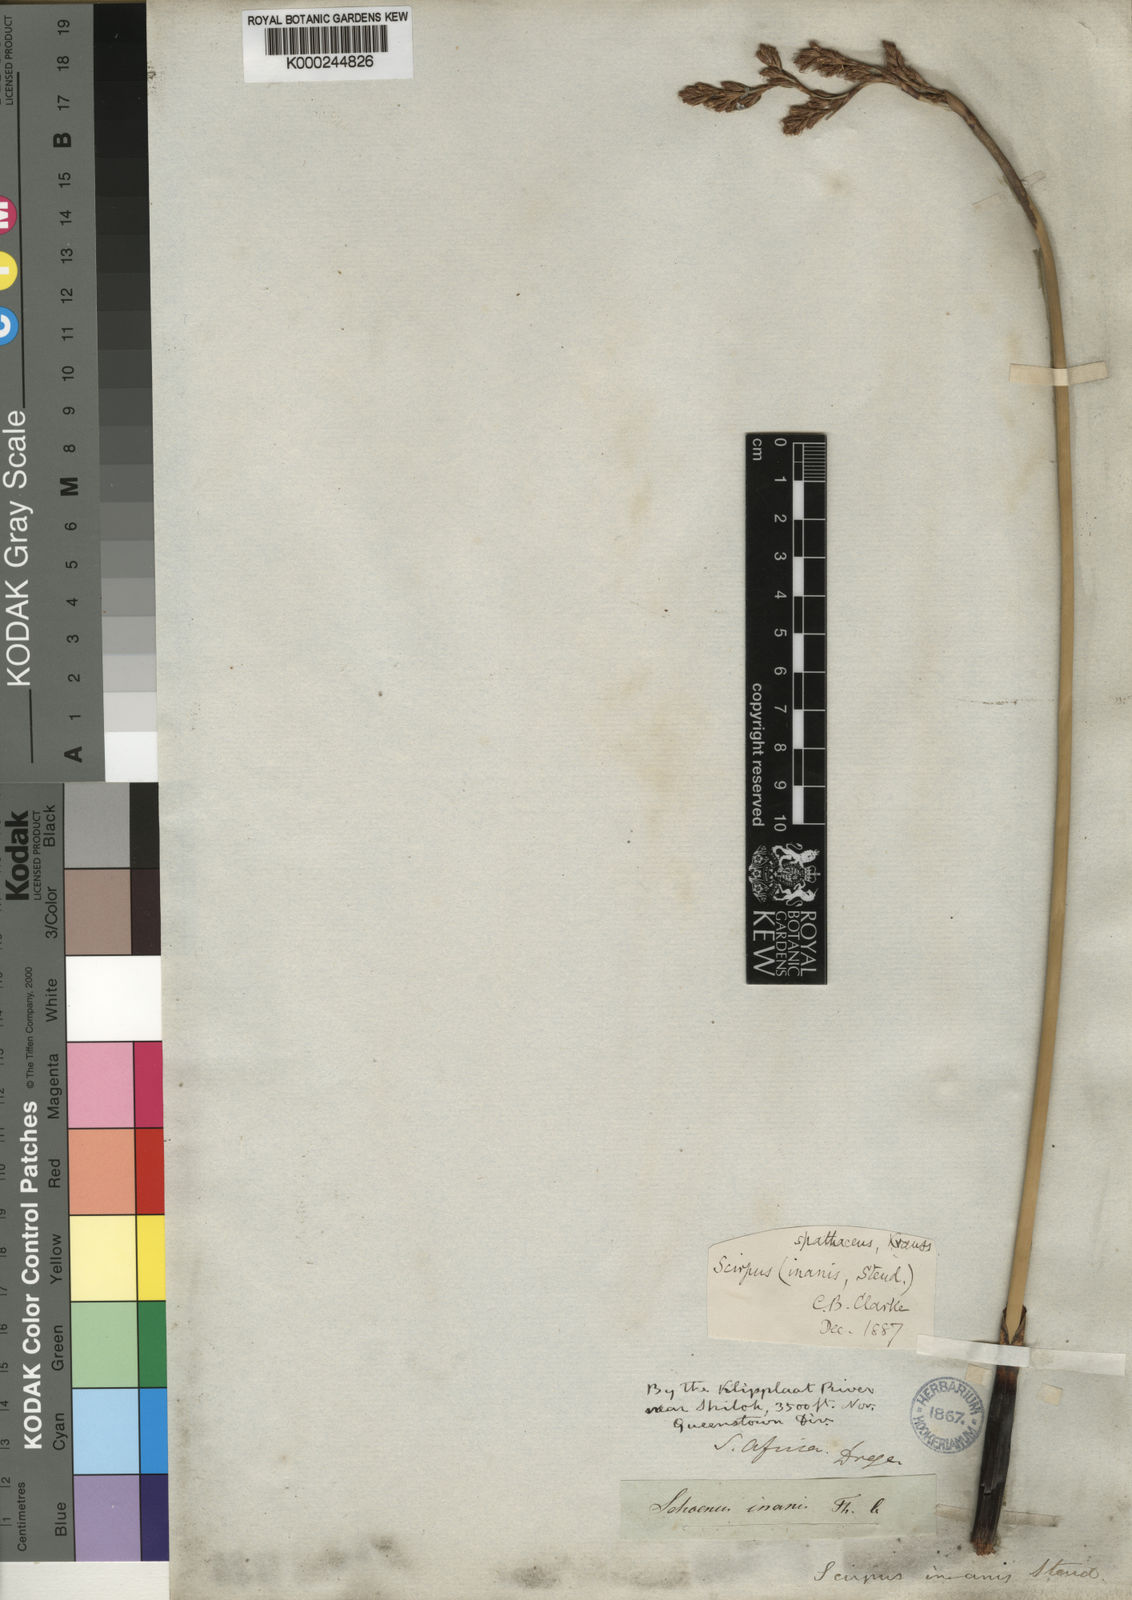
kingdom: Plantae
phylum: Tracheophyta
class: Liliopsida
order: Poales
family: Cyperaceae
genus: Pseudoschoenus
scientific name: Pseudoschoenus inanis
